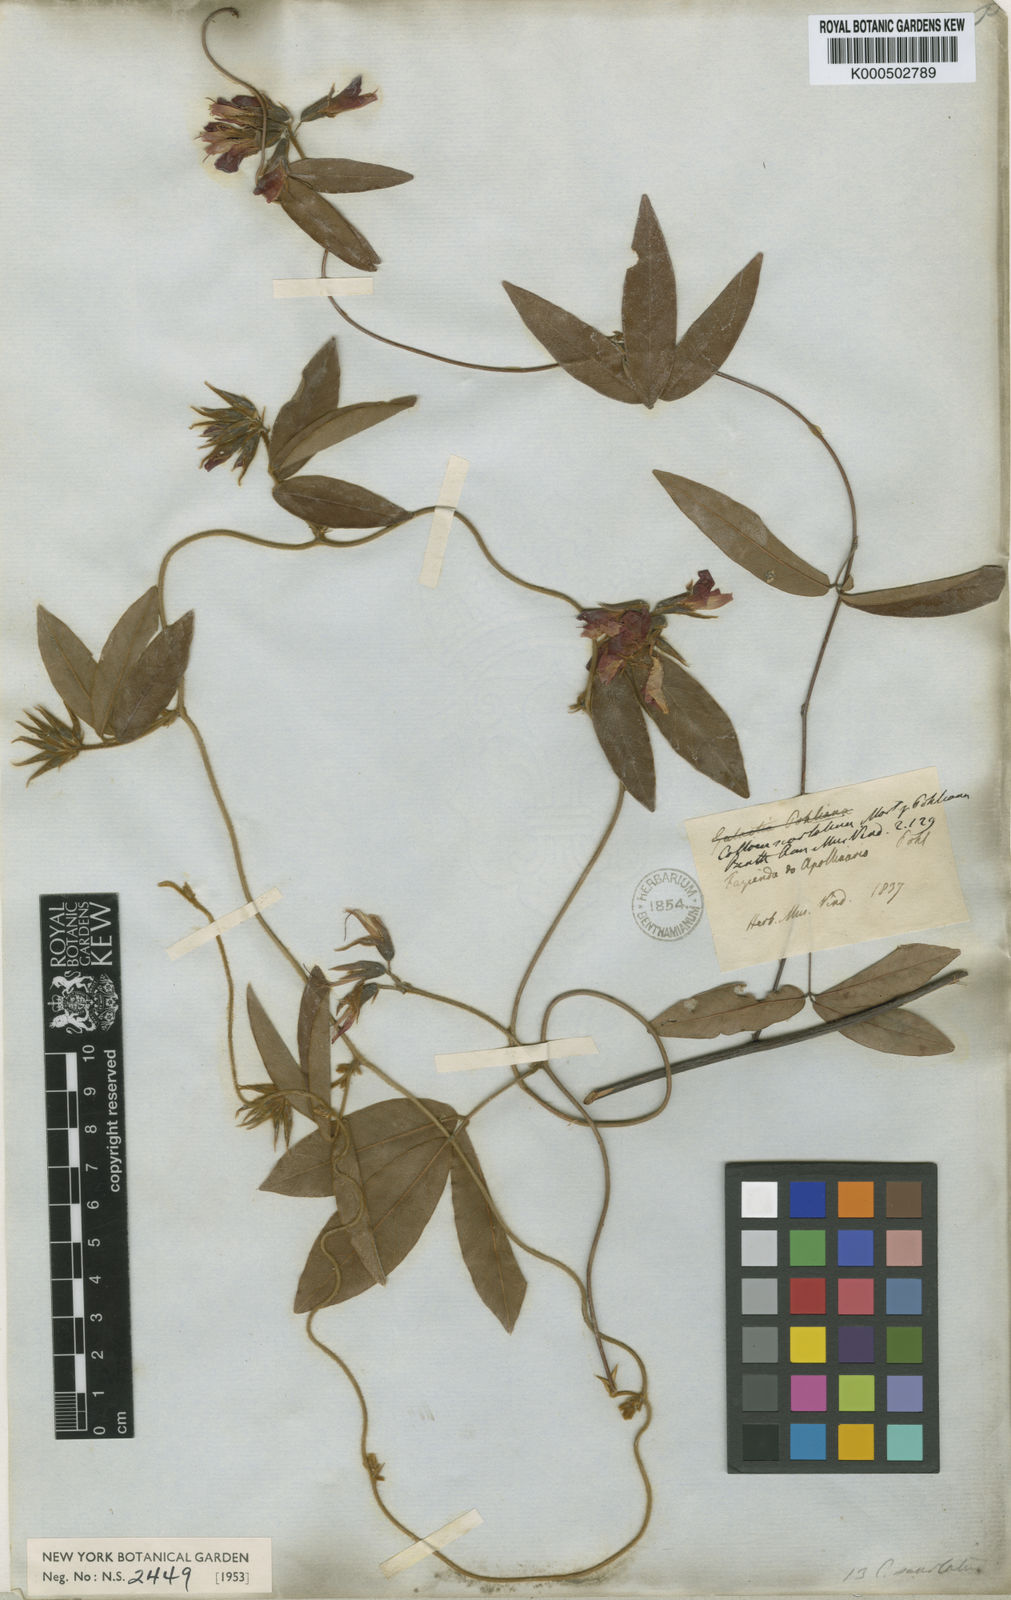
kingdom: Plantae
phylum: Tracheophyta
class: Magnoliopsida
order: Fabales
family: Fabaceae
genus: Betencourtia
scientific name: Betencourtia scarlatina
